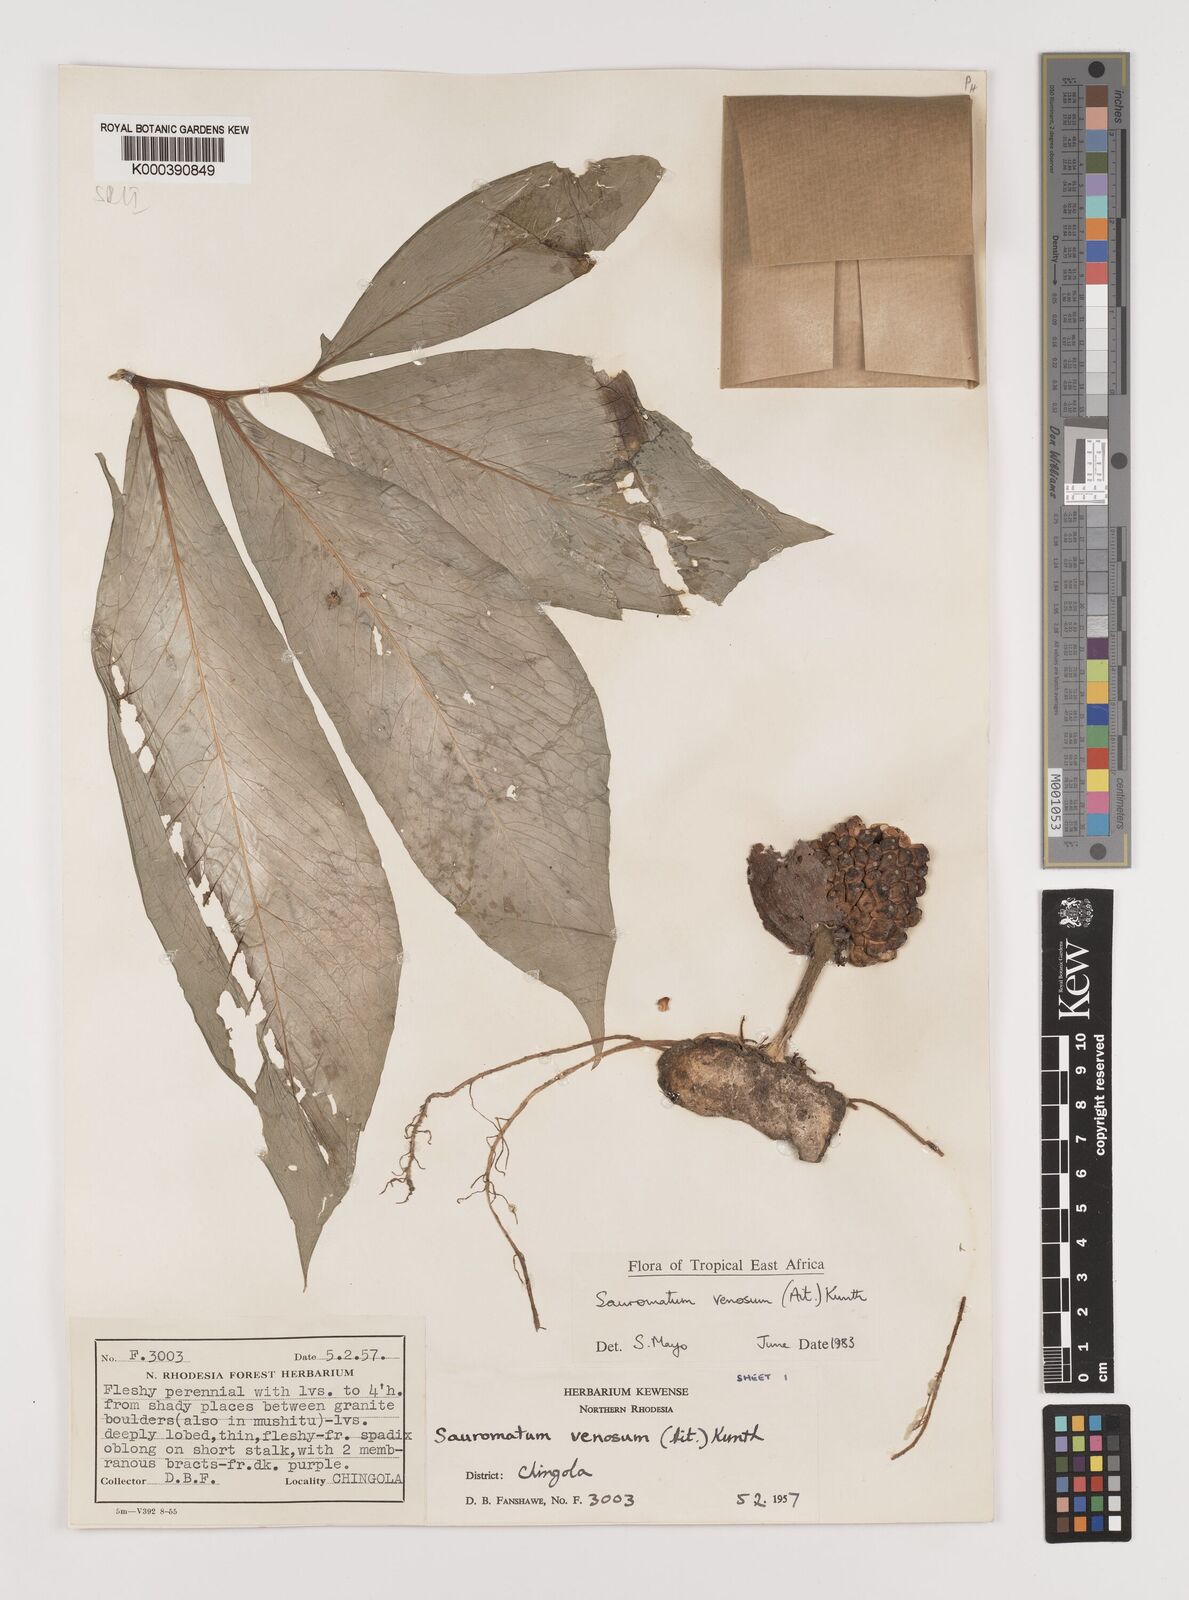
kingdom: Plantae
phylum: Tracheophyta
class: Liliopsida
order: Alismatales
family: Araceae
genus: Sauromatum
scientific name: Sauromatum venosum
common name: Voodoo lily
